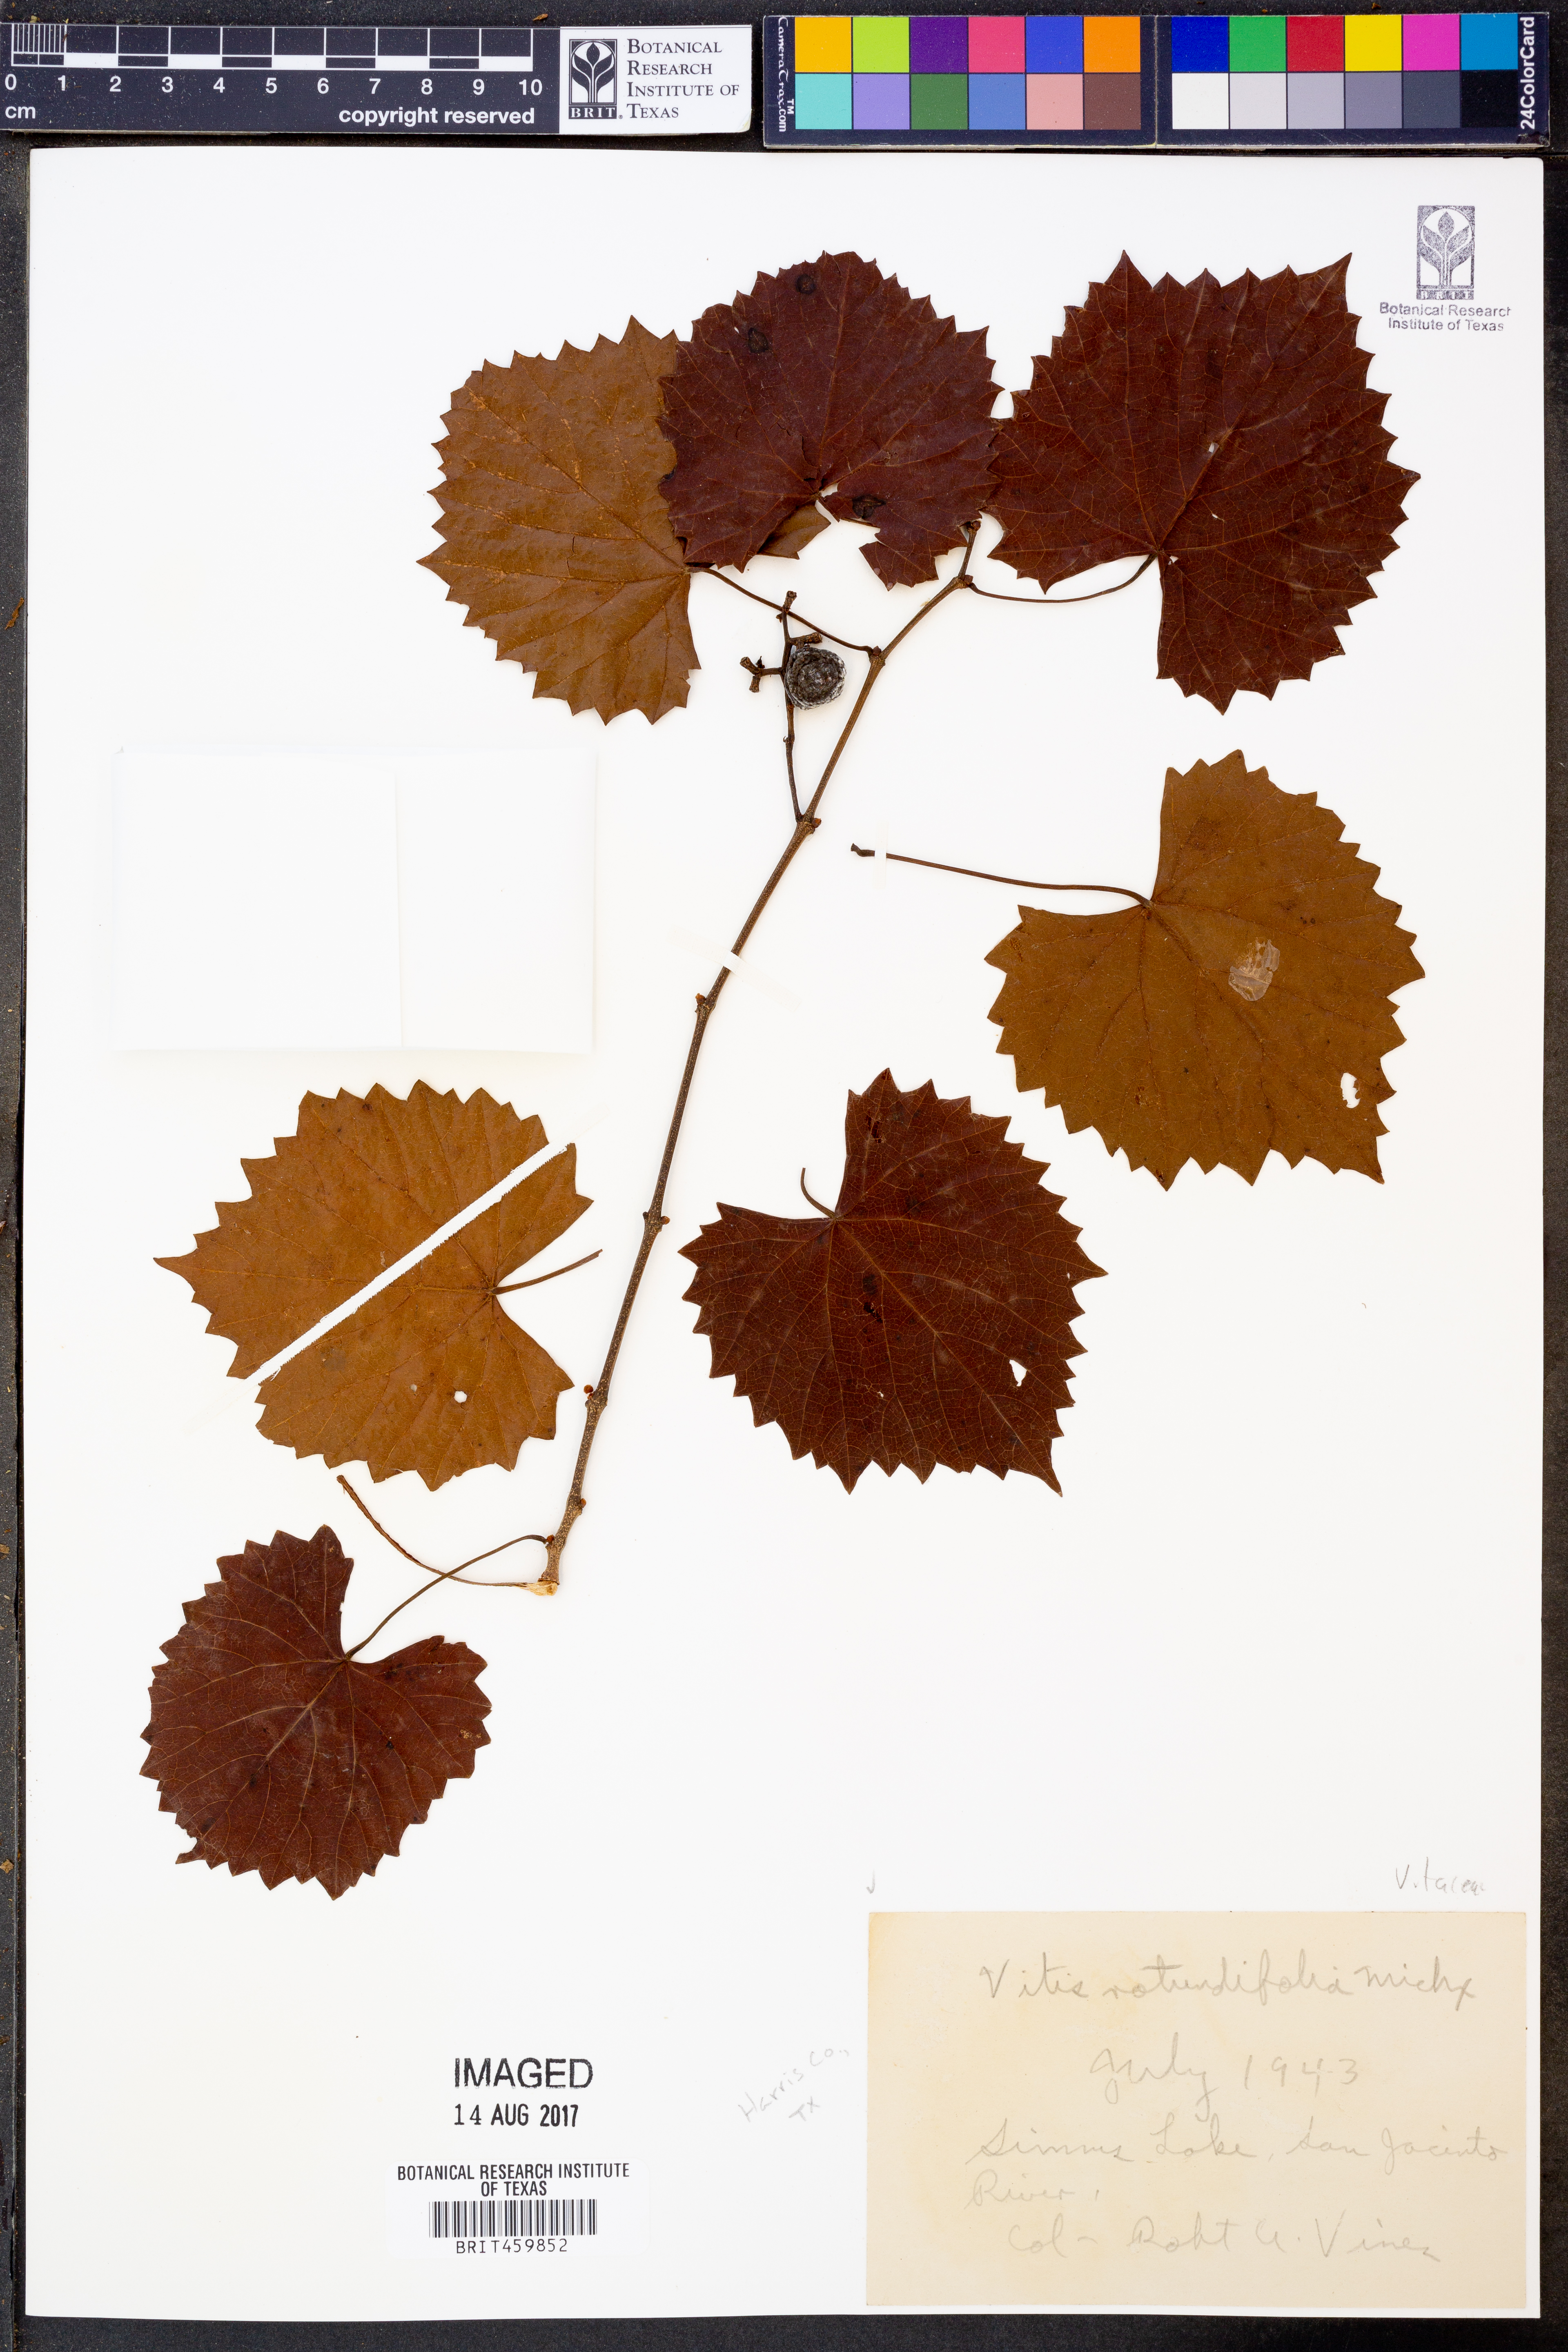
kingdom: Plantae
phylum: Tracheophyta
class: Magnoliopsida
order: Vitales
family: Vitaceae
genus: Vitis
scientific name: Vitis rotundifolia
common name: Muscadine grape
